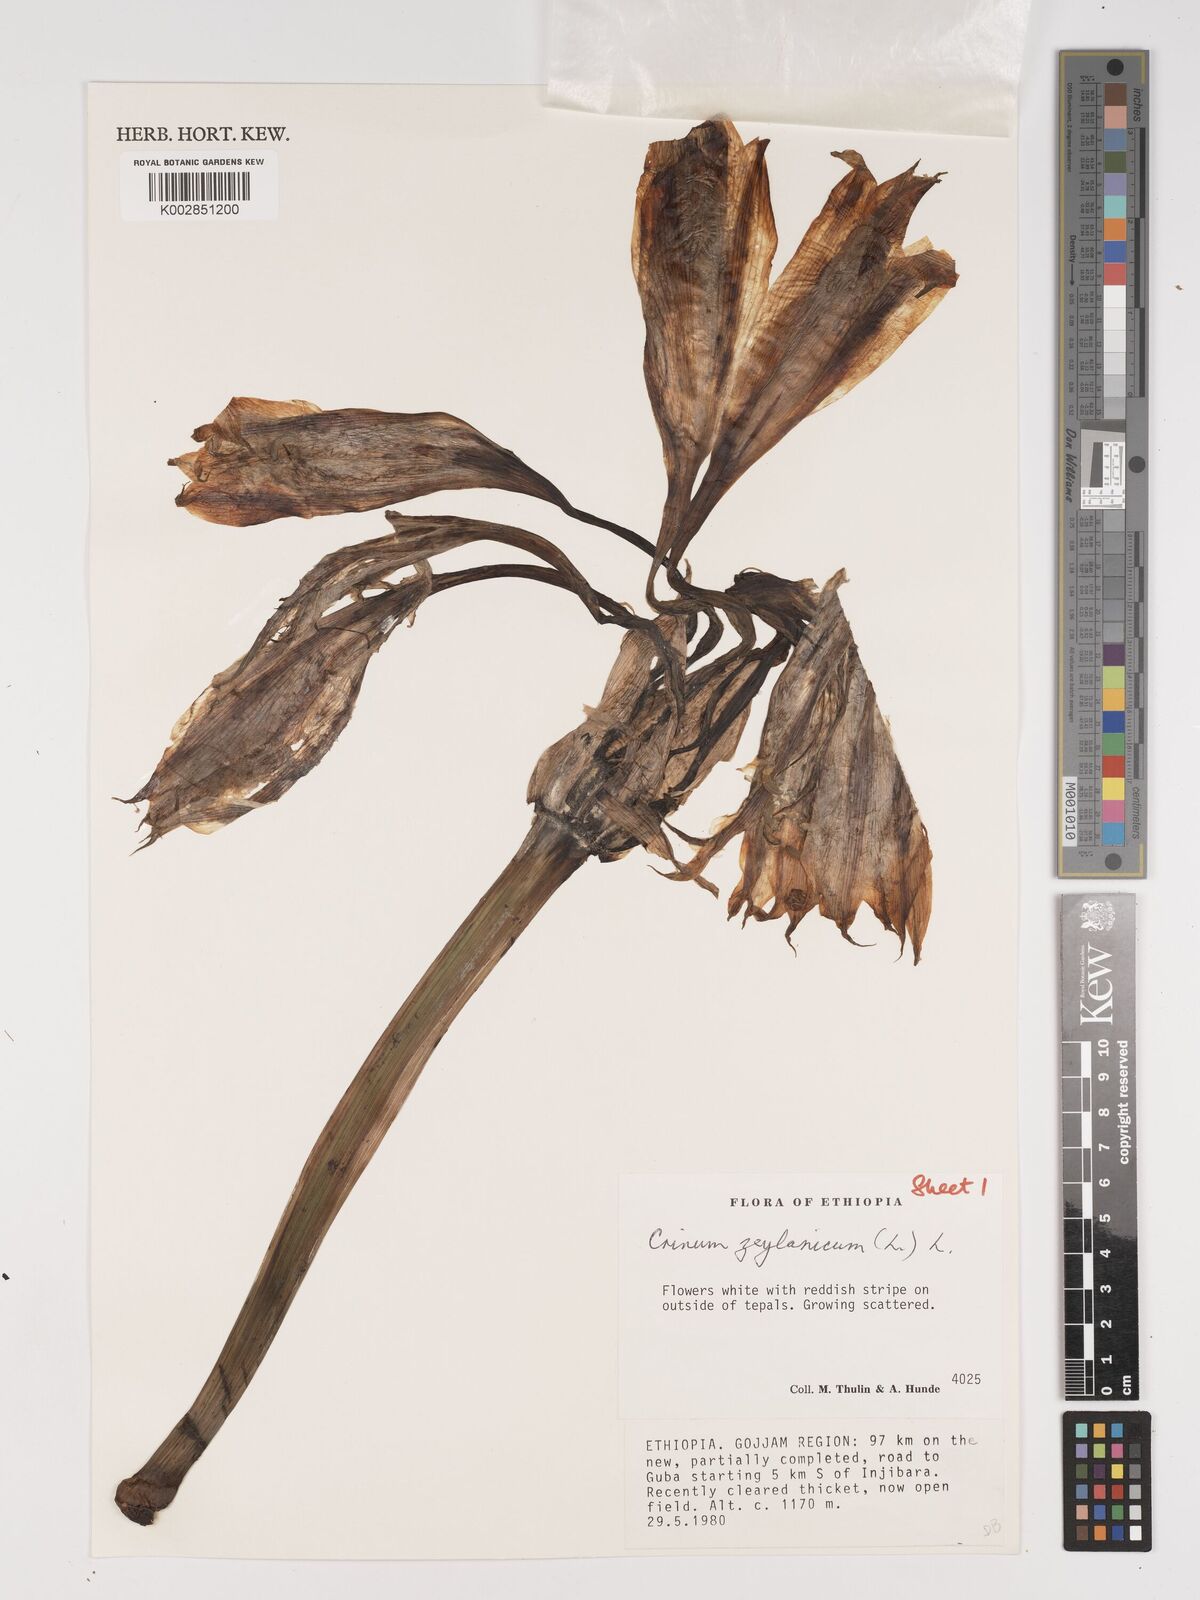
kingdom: Plantae
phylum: Tracheophyta
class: Liliopsida
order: Asparagales
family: Amaryllidaceae
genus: Crinum
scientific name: Crinum zeylanicum
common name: Ceylon swamplily
